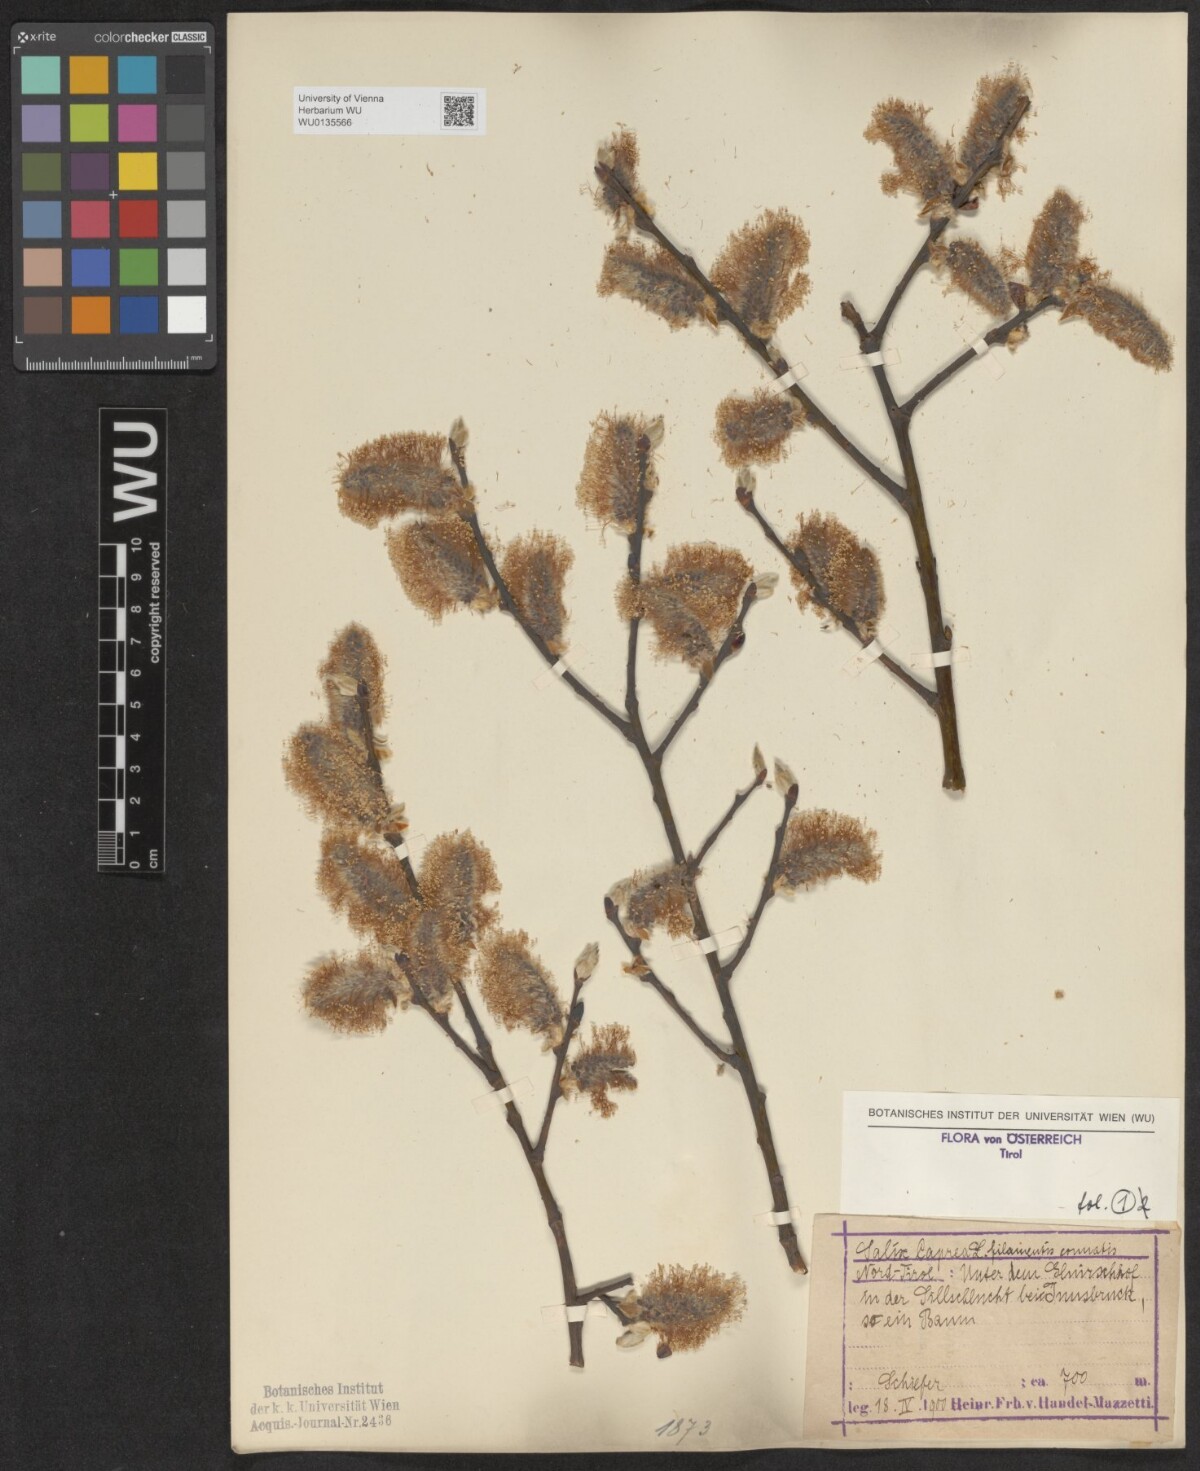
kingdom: Plantae
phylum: Tracheophyta
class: Magnoliopsida
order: Malpighiales
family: Salicaceae
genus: Salix
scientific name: Salix caprea
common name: Goat willow
